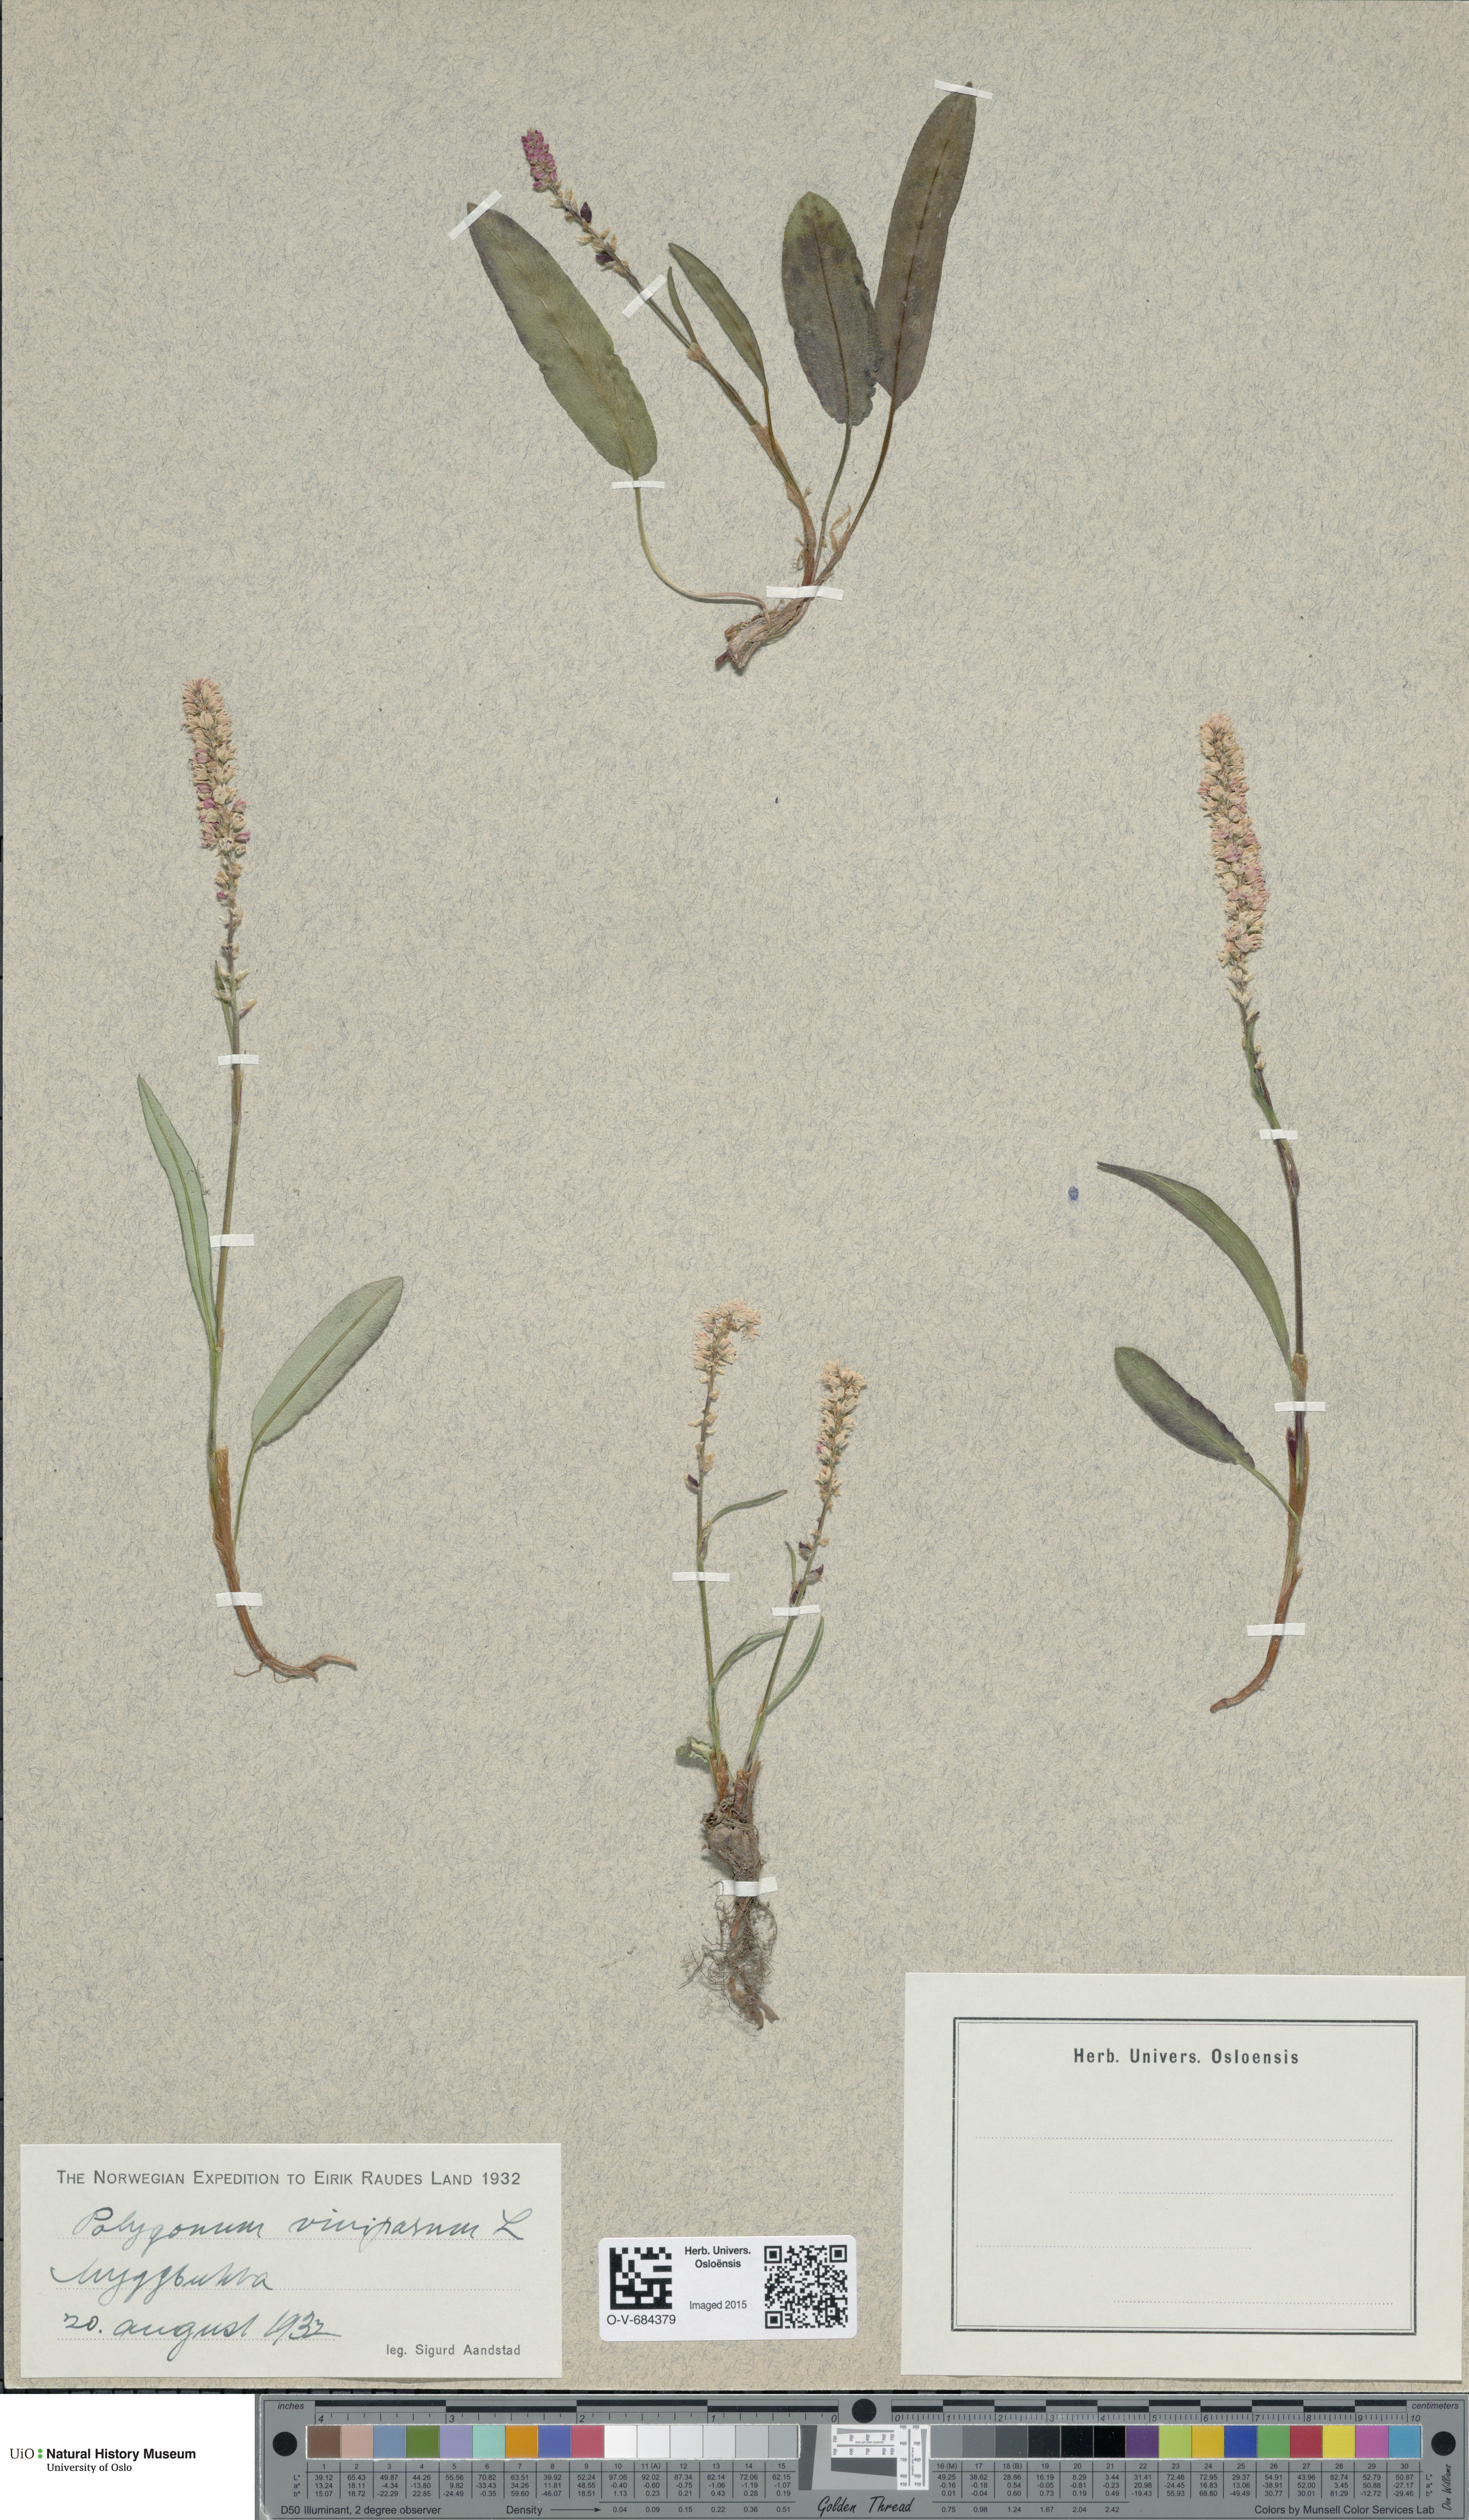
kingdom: Plantae
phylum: Tracheophyta
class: Magnoliopsida
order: Caryophyllales
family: Polygonaceae
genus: Bistorta
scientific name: Bistorta vivipara
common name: Alpine bistort
